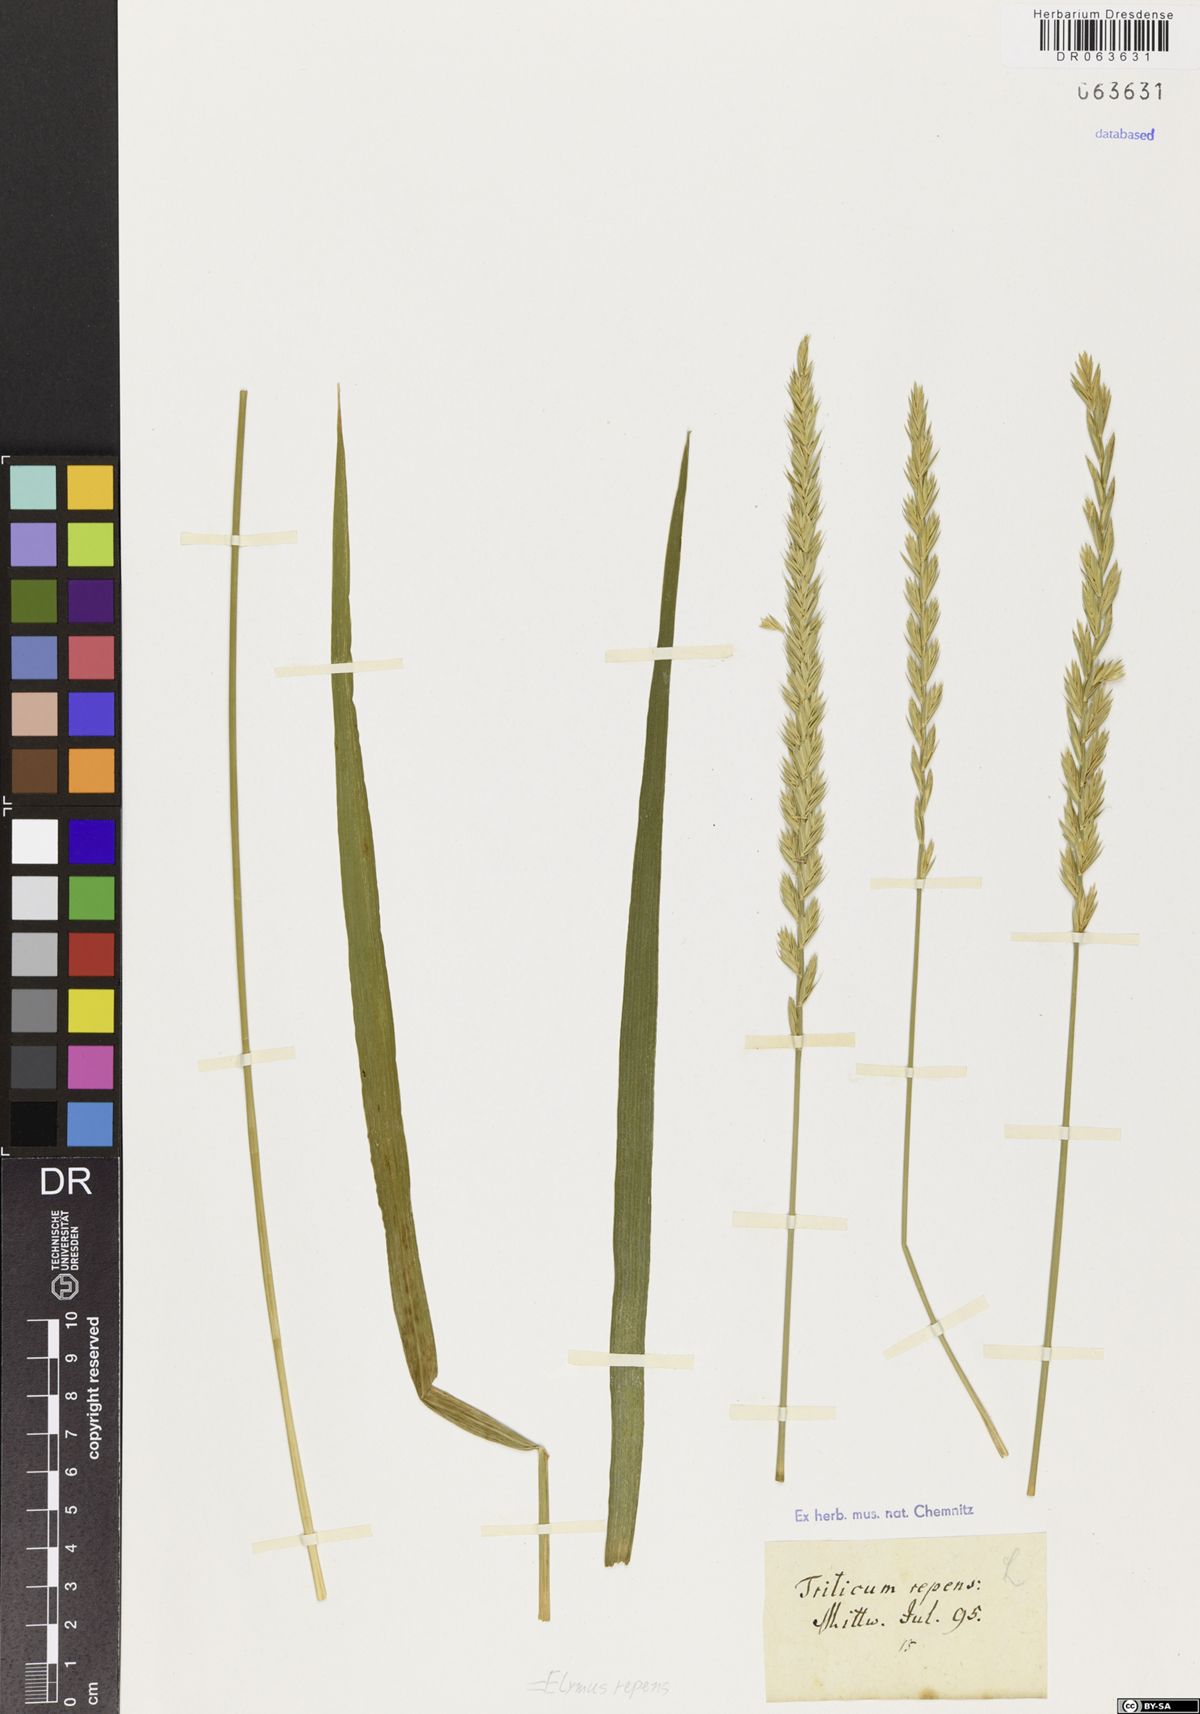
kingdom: Plantae
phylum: Tracheophyta
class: Liliopsida
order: Poales
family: Poaceae
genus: Elymus
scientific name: Elymus repens
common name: Quackgrass
